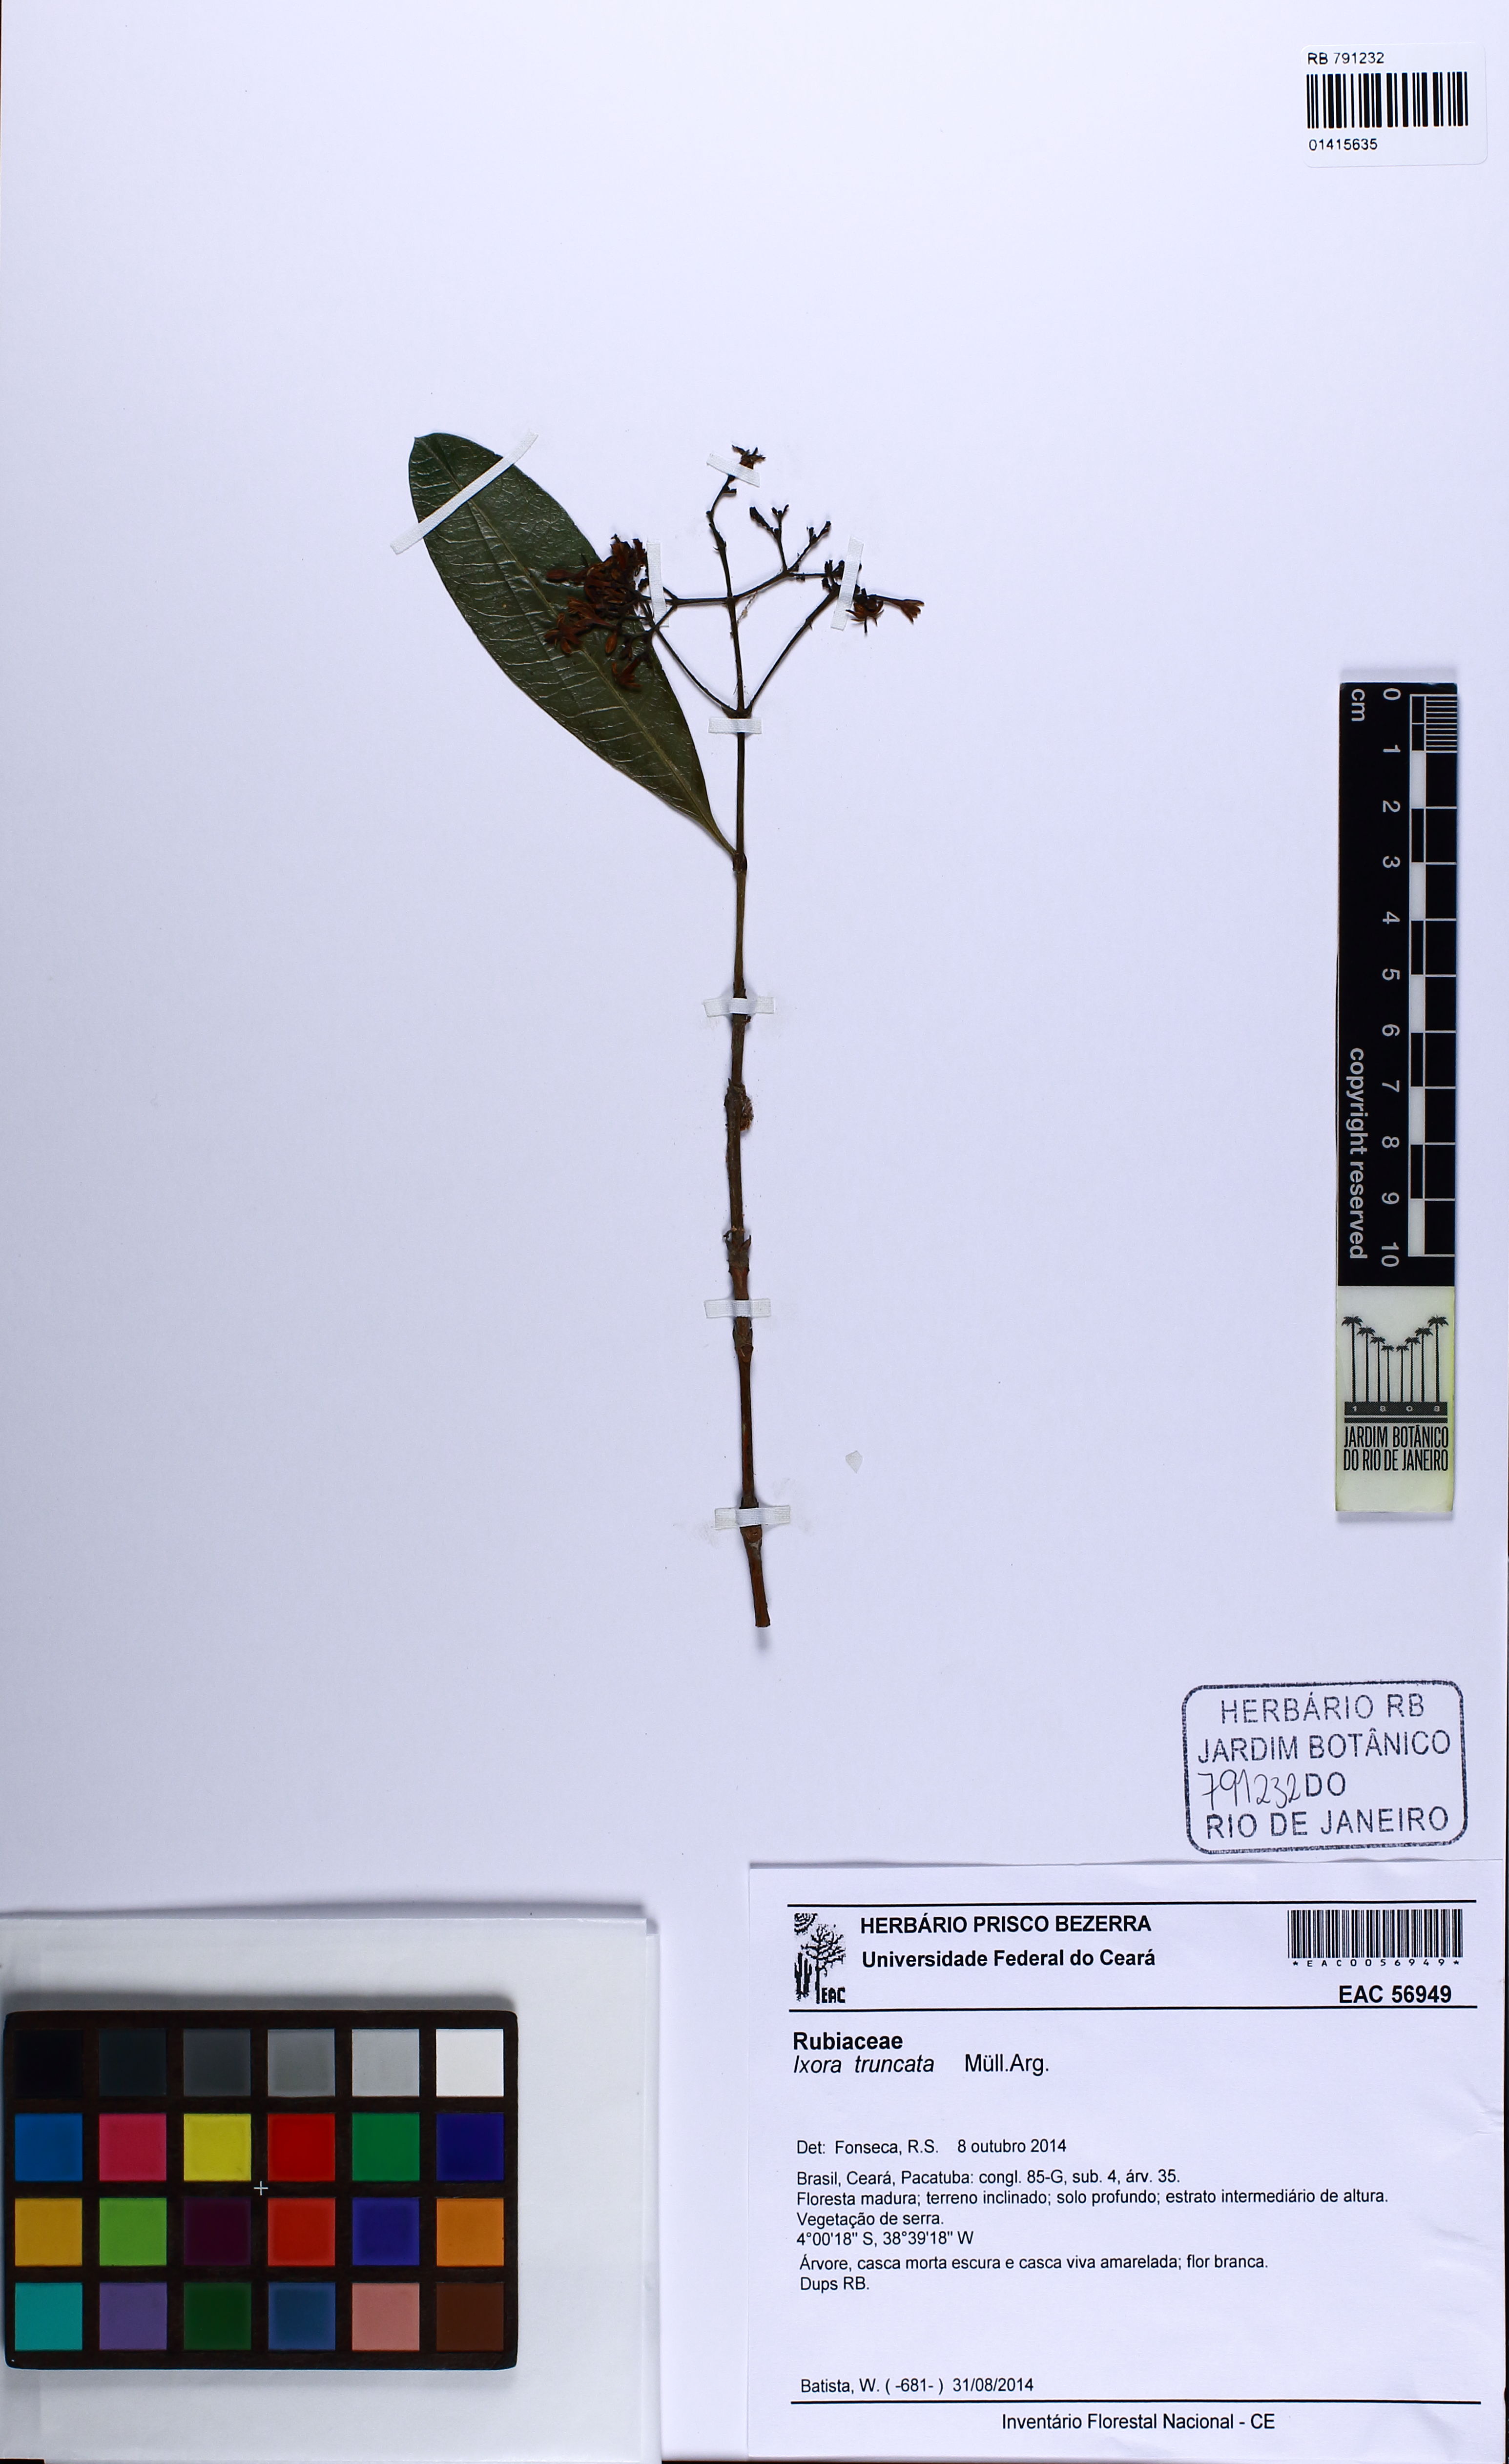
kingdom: Plantae
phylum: Tracheophyta
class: Magnoliopsida
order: Gentianales
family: Rubiaceae
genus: Ixora
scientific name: Ixora gardneriana
